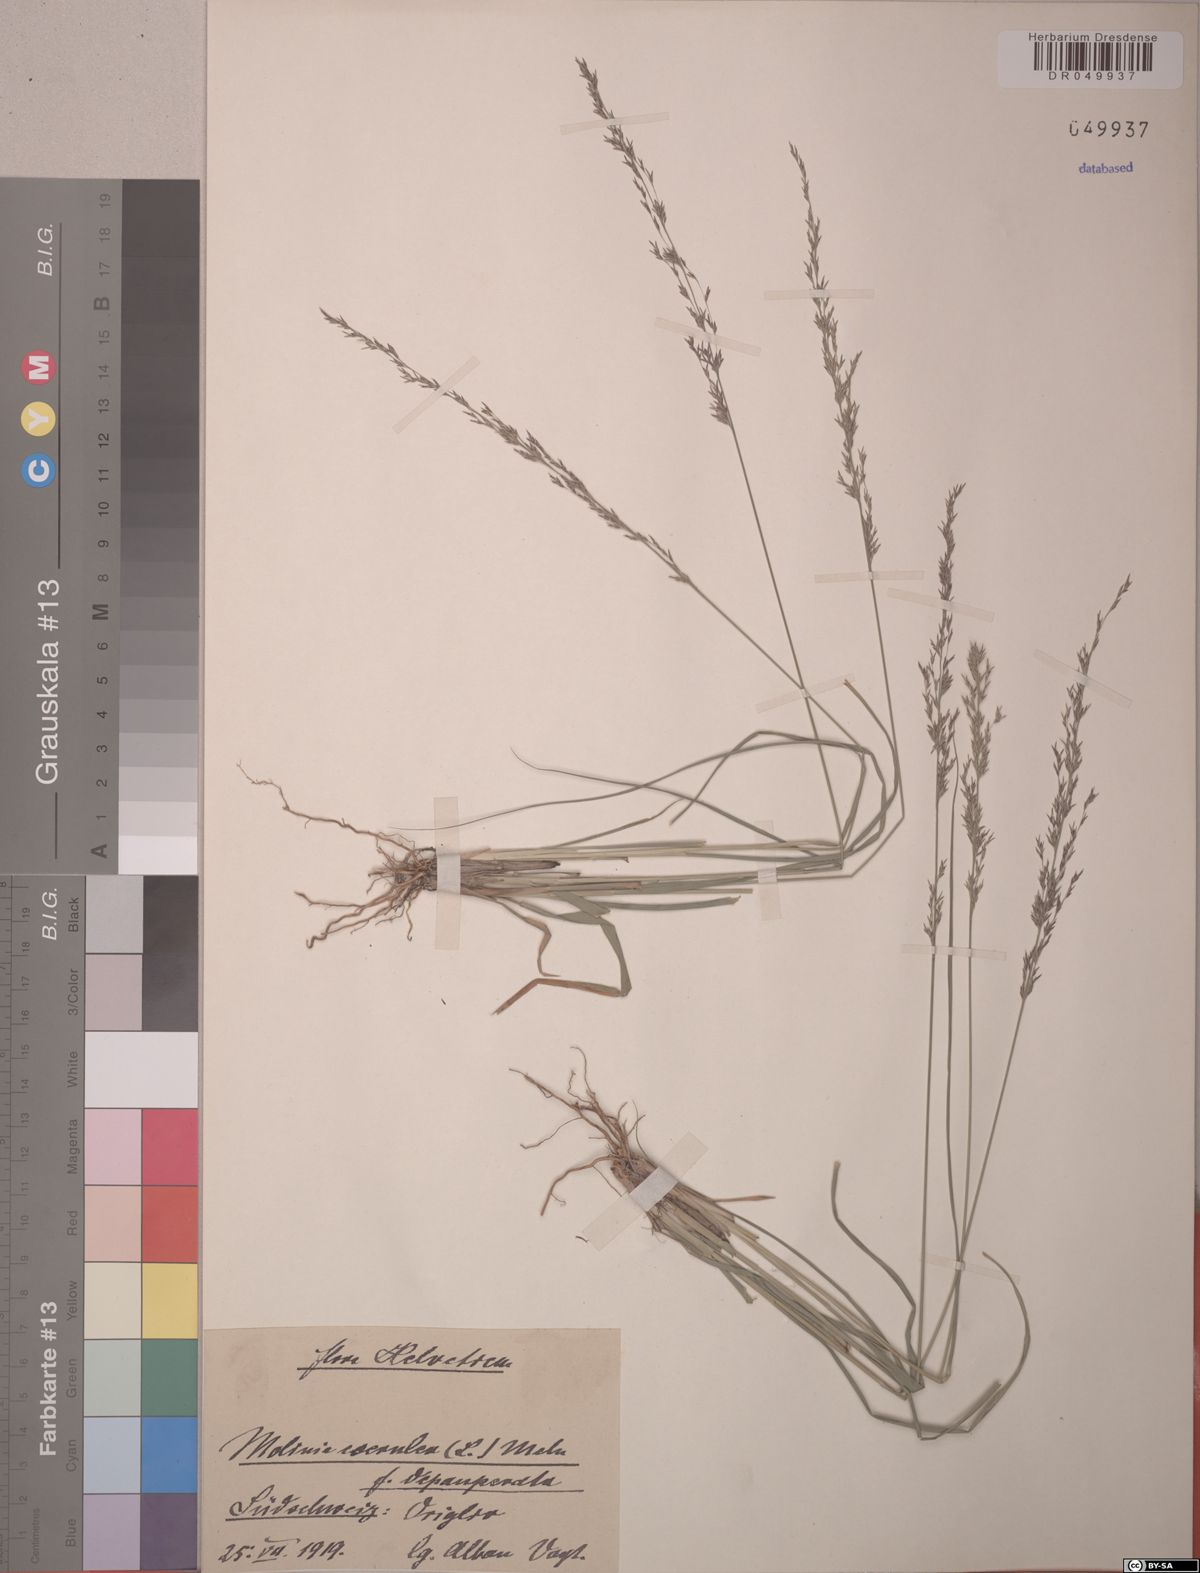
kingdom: Plantae
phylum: Tracheophyta
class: Liliopsida
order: Poales
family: Poaceae
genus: Molinia
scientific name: Molinia caerulea
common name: Purple moor-grass
